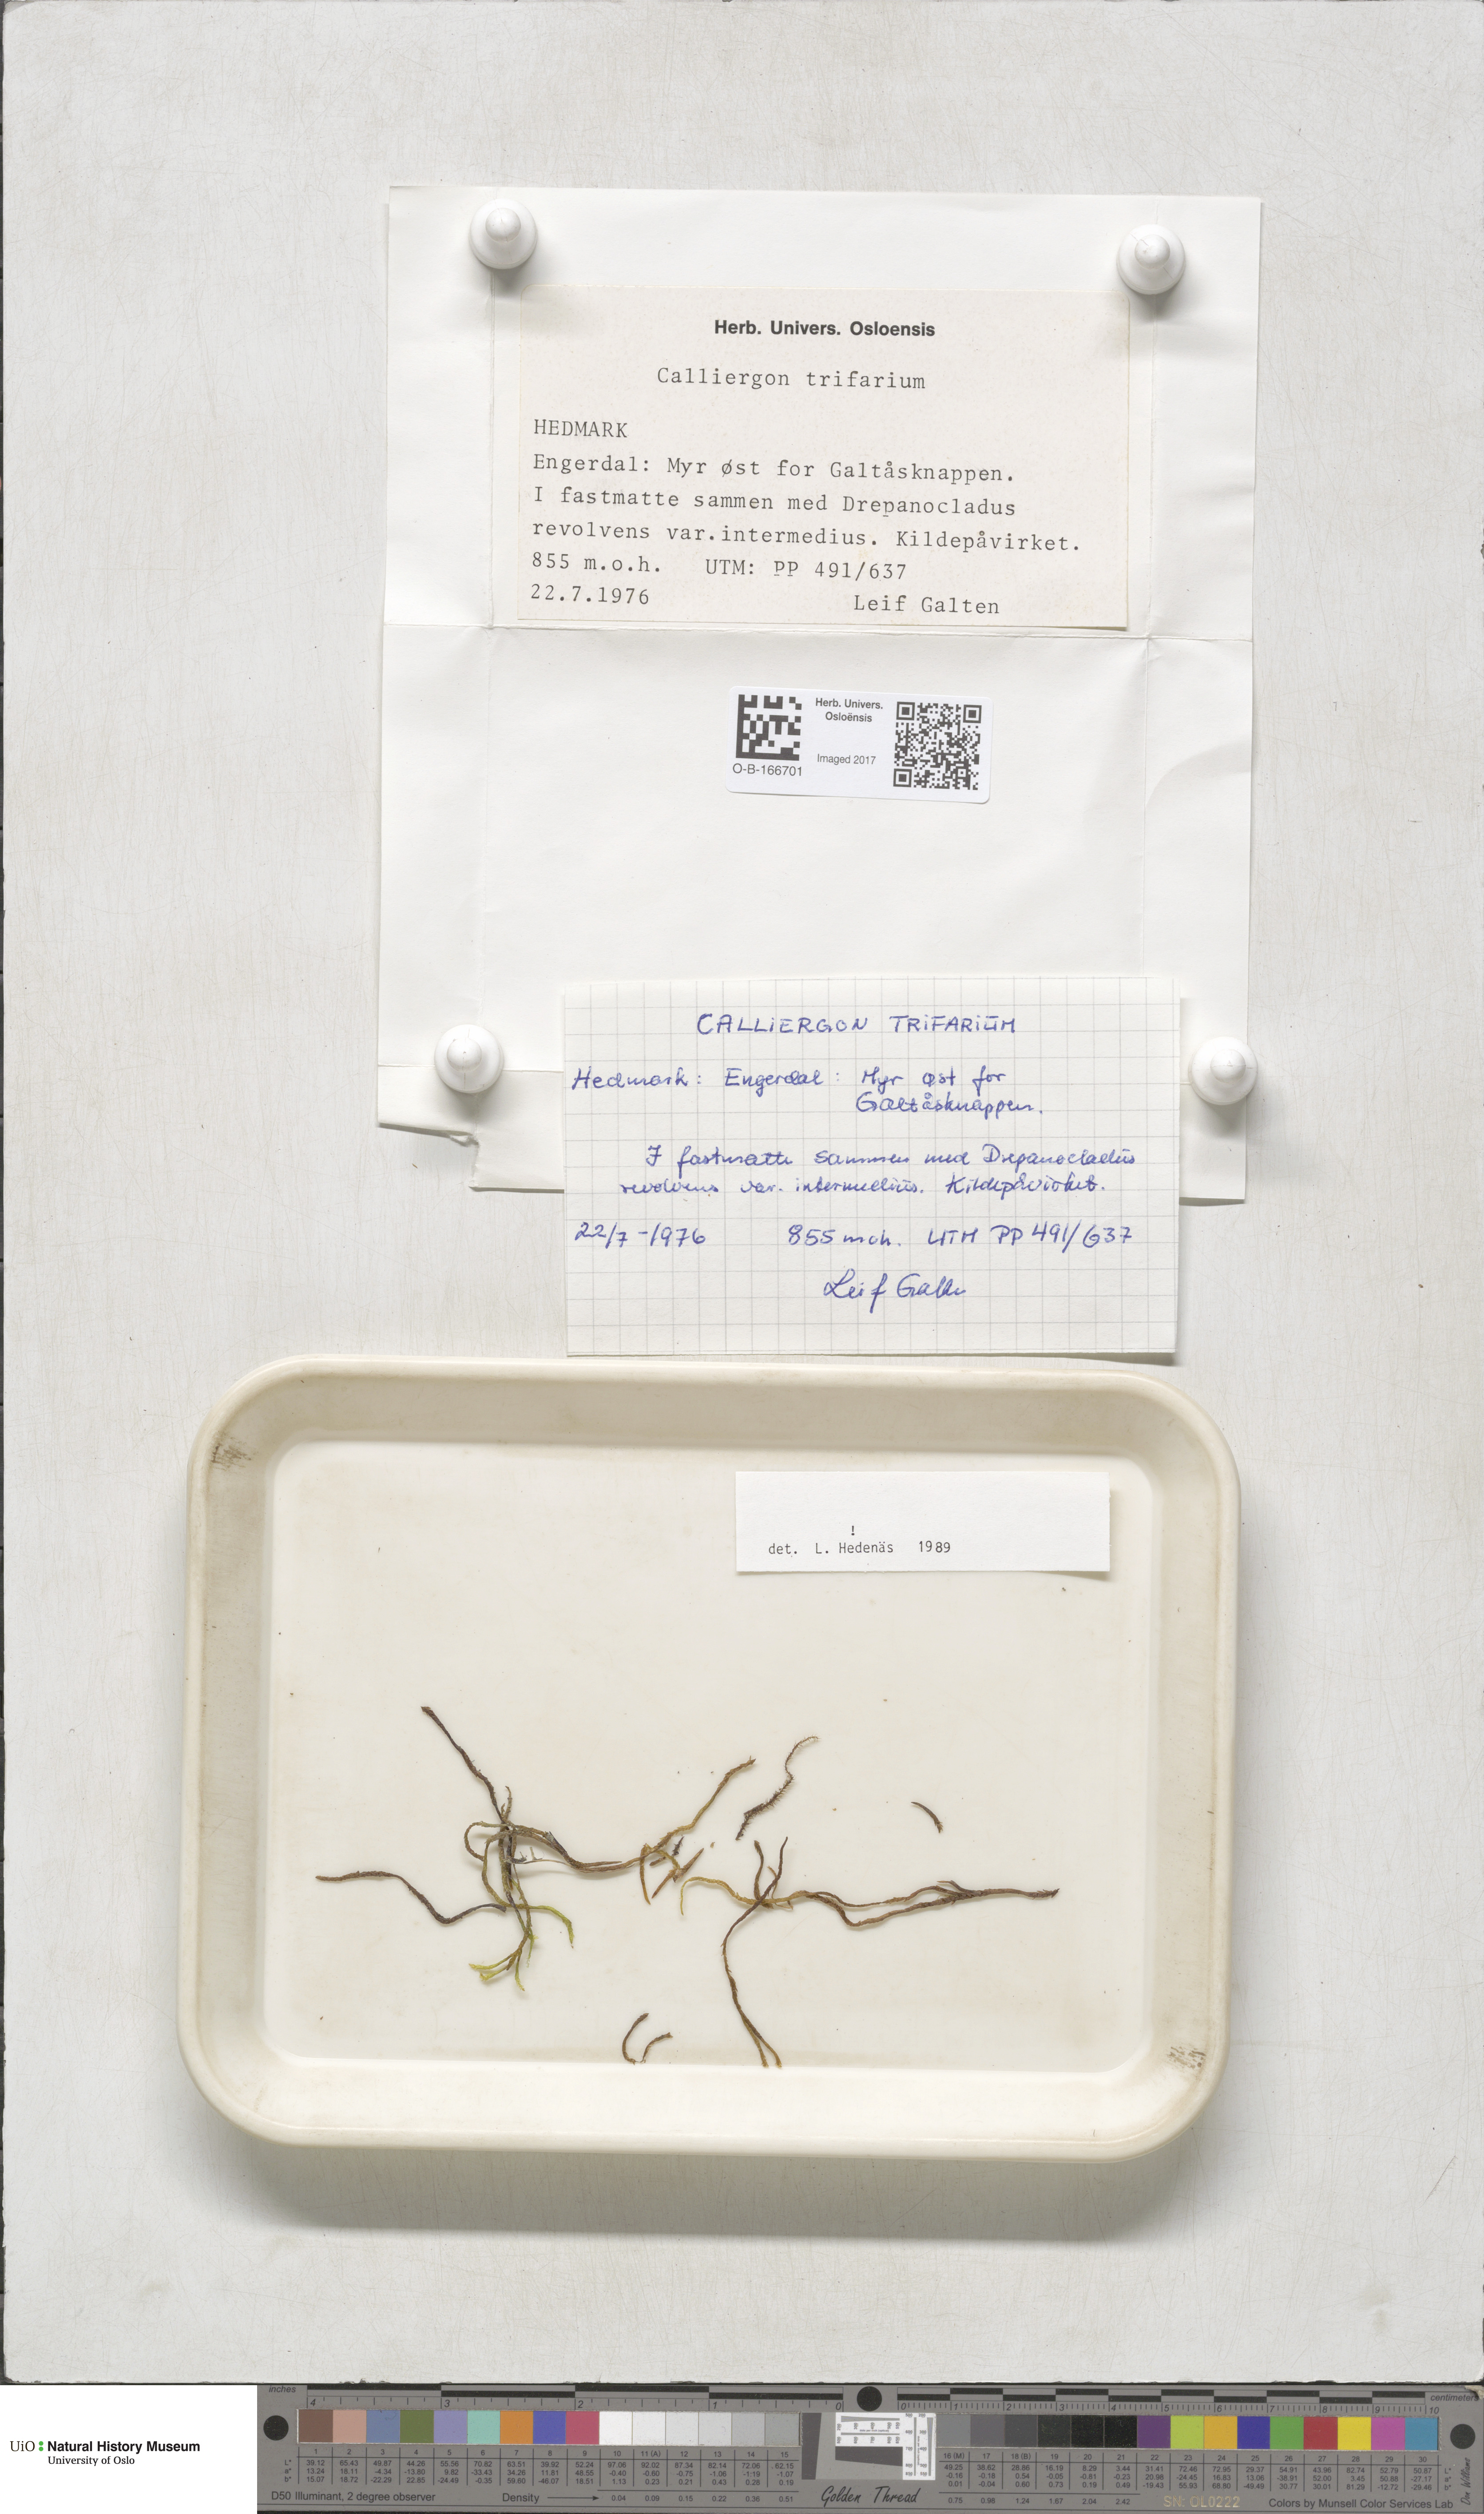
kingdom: Plantae
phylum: Bryophyta
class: Bryopsida
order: Hypnales
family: Amblystegiaceae
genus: Drepanocladus
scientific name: Drepanocladus trifarius
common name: Calliergon moss
